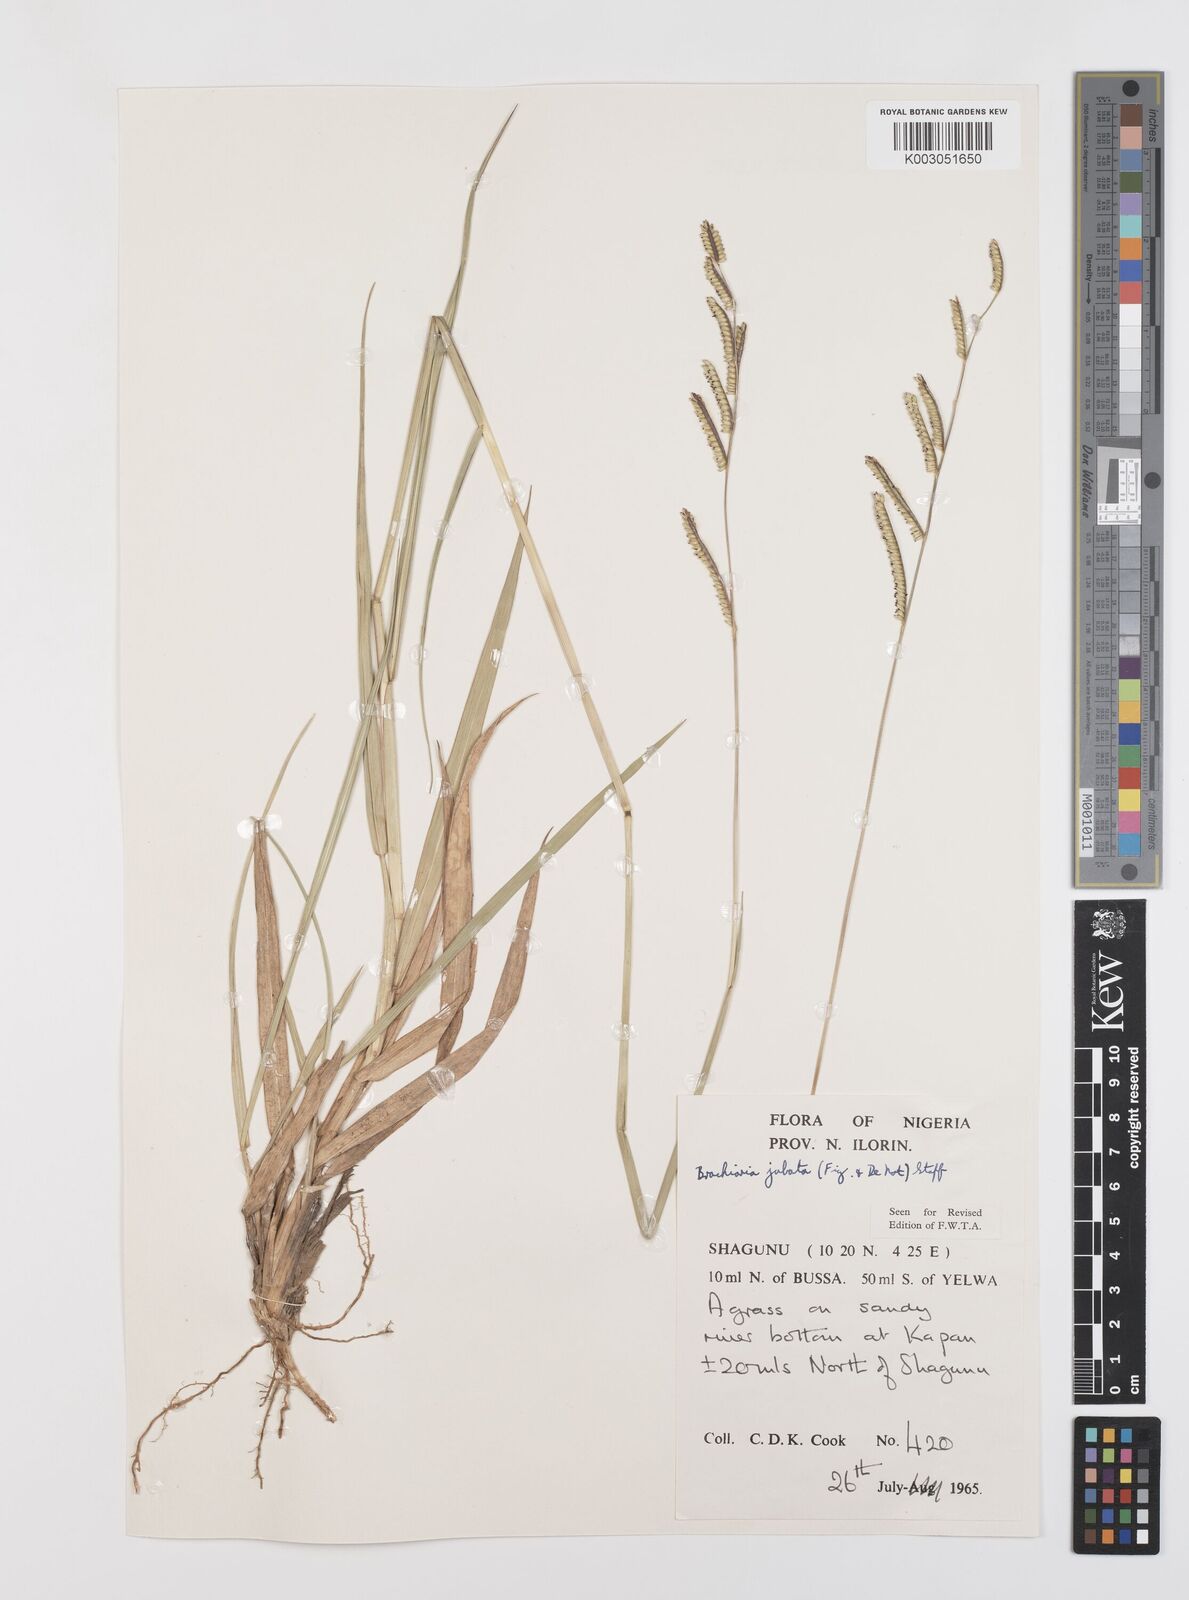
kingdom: Plantae
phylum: Tracheophyta
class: Liliopsida
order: Poales
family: Poaceae
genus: Urochloa
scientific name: Urochloa jubata
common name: Buffalograss
